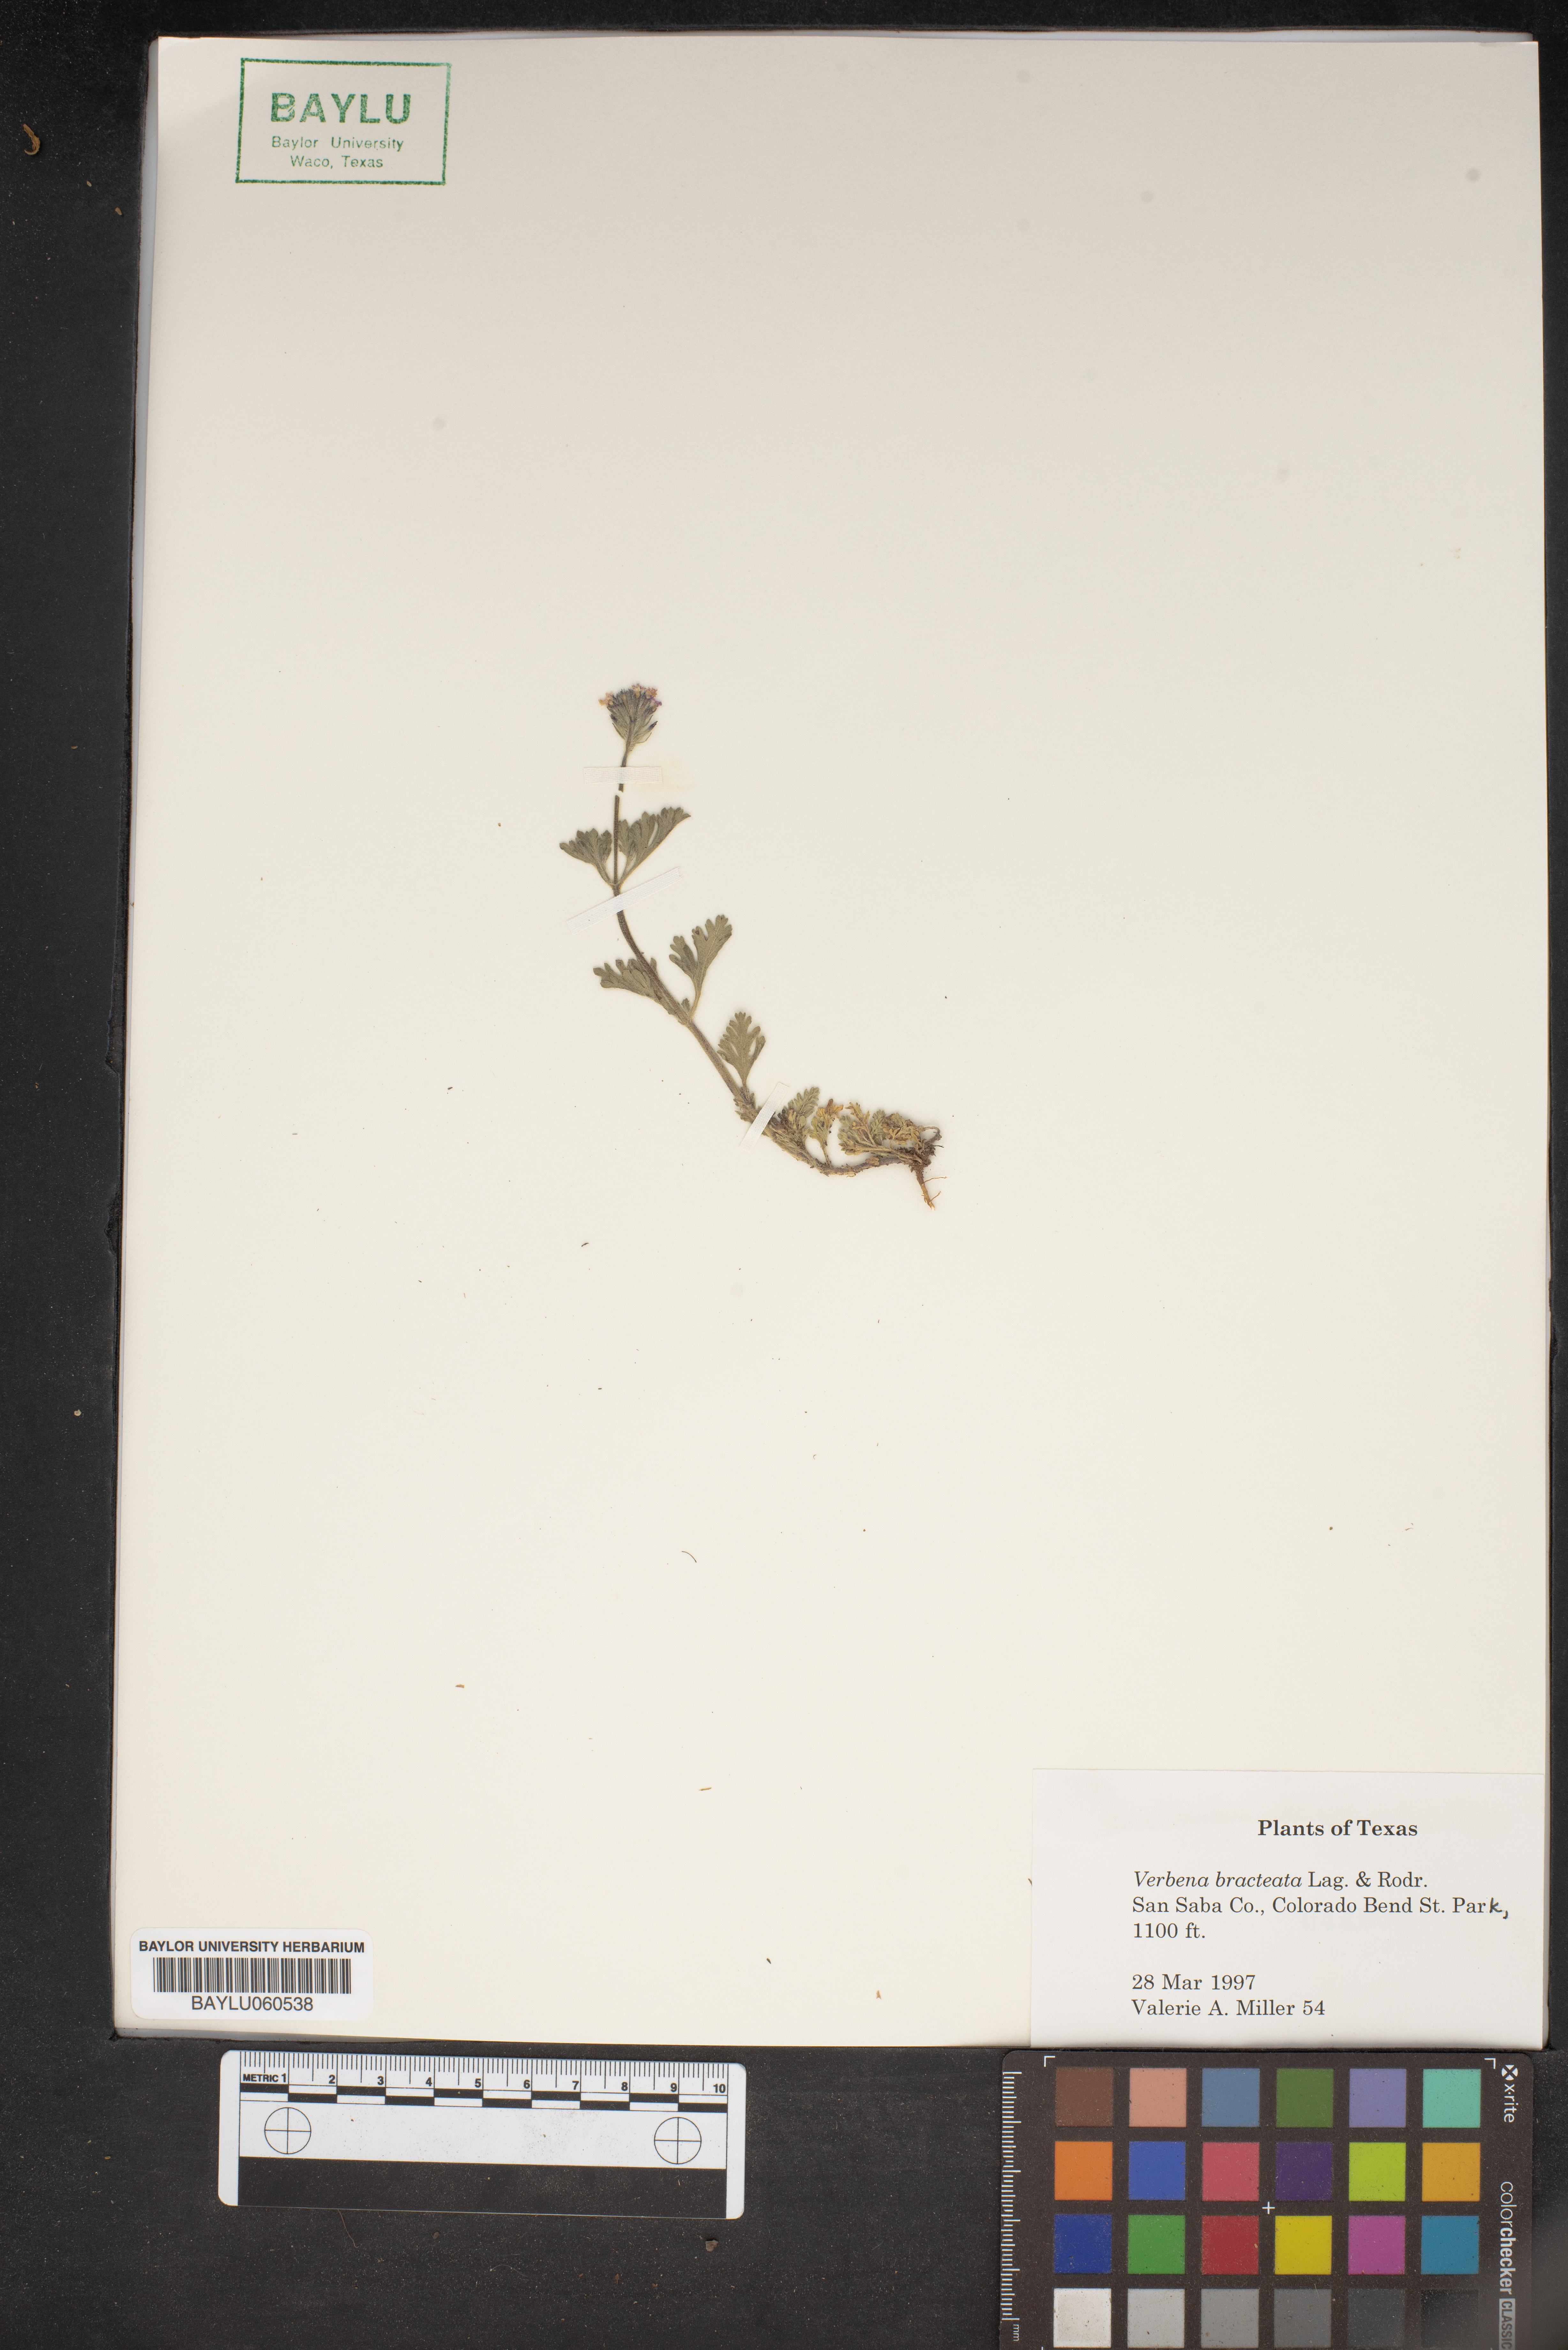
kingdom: Plantae
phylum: Tracheophyta
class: Magnoliopsida
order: Lamiales
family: Verbenaceae
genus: Verbena
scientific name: Verbena bracteata
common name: Bracted vervain
